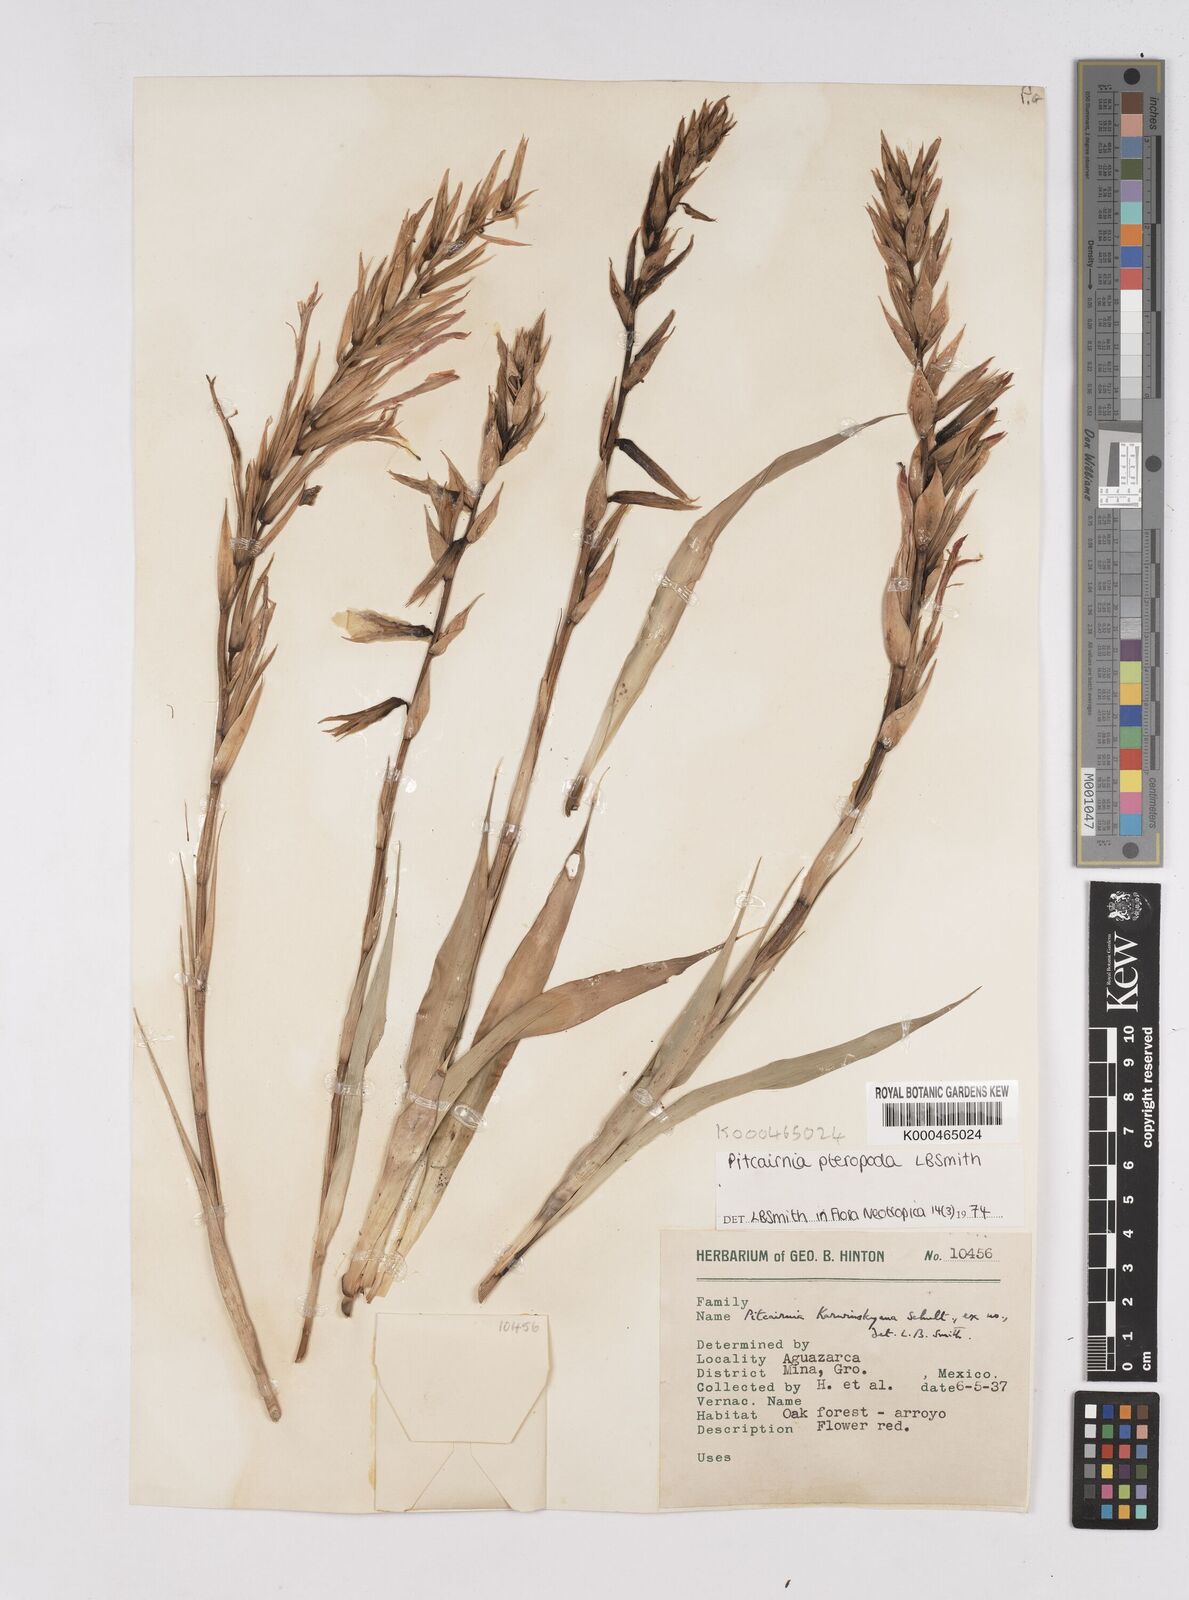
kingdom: Plantae
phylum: Tracheophyta
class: Liliopsida
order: Poales
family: Bromeliaceae
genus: Pitcairnia
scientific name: Pitcairnia pteropoda
